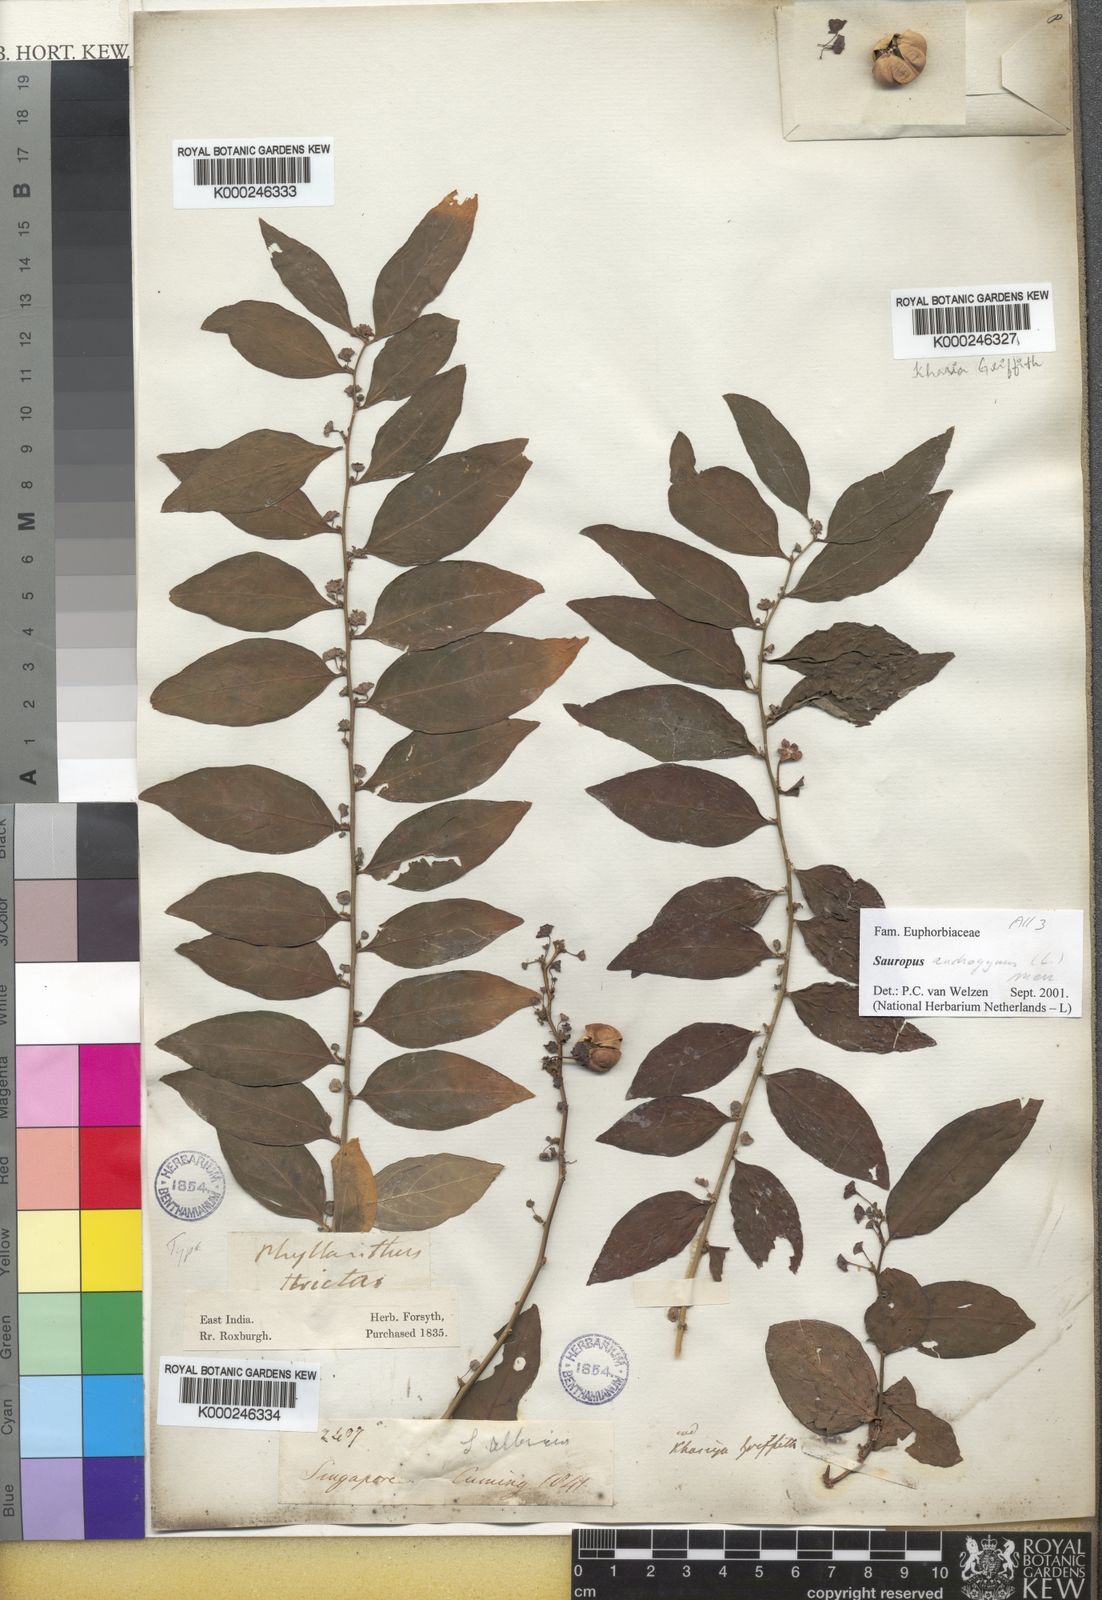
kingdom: Plantae
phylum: Tracheophyta
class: Magnoliopsida
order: Malpighiales
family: Phyllanthaceae
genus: Breynia
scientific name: Breynia androgyna
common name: Star gooseberry
